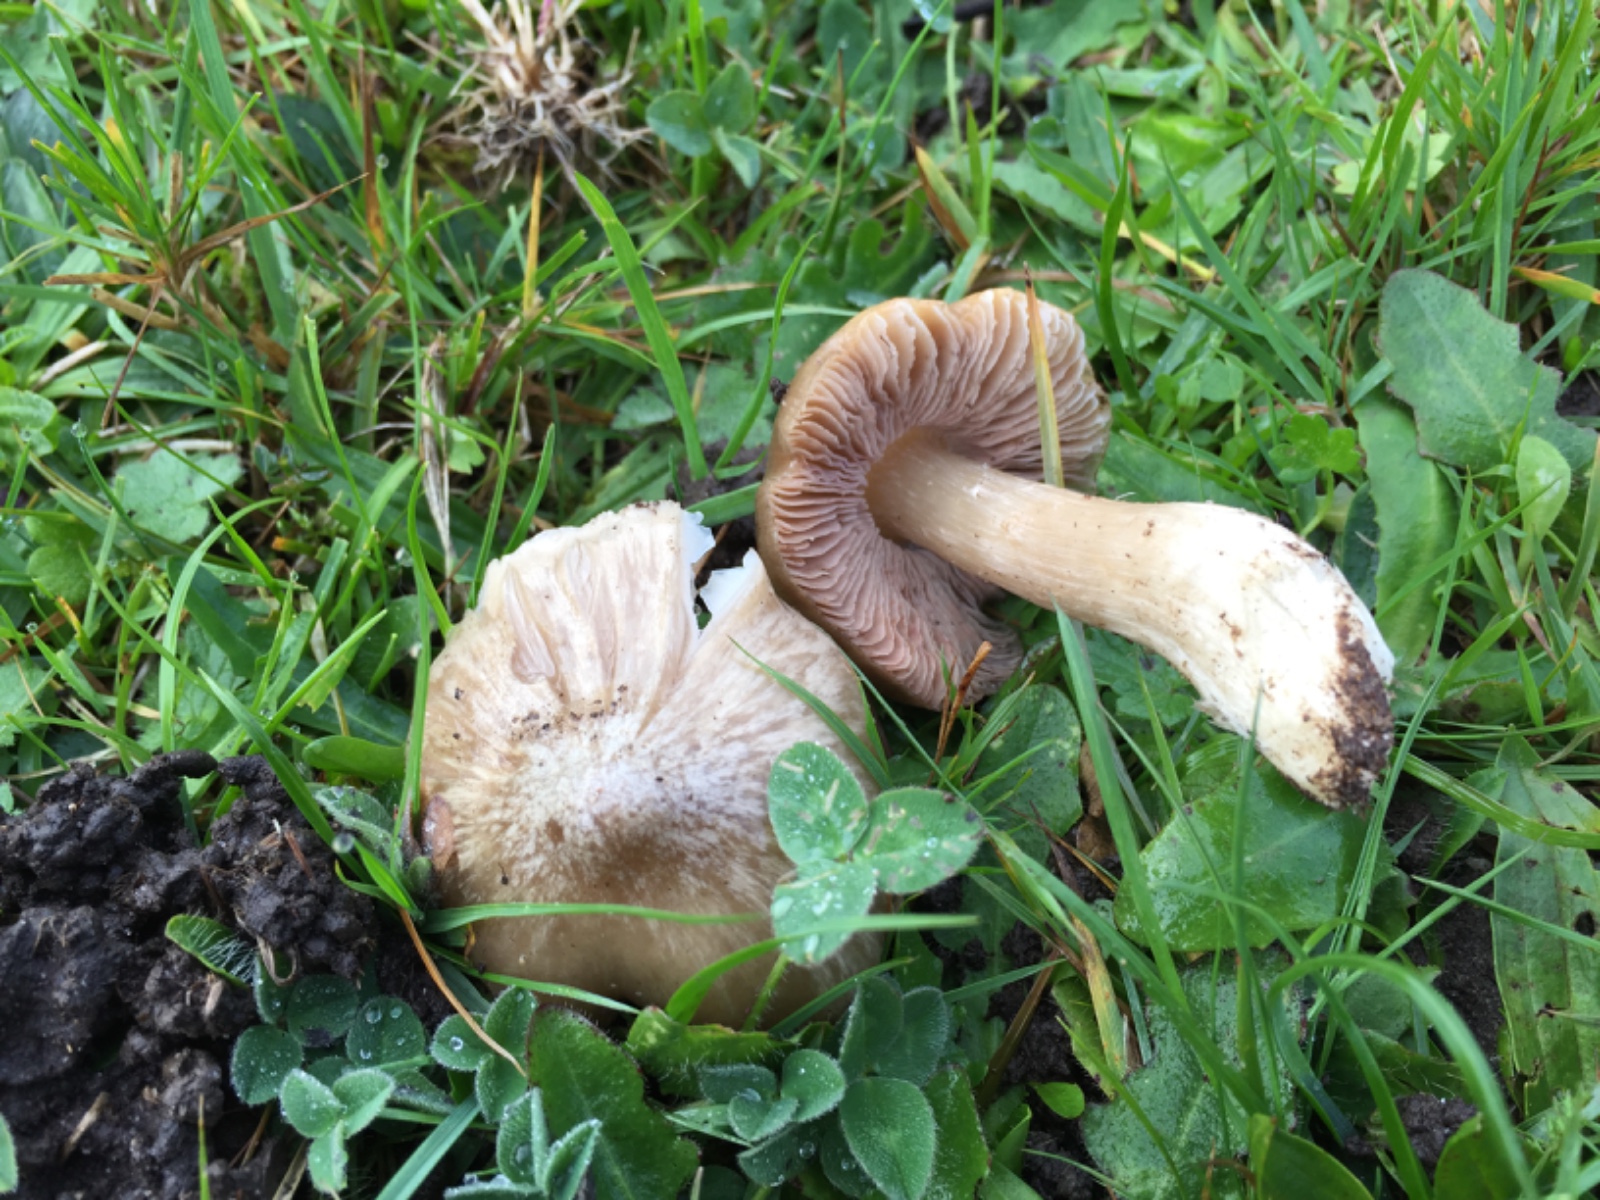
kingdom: Fungi
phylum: Basidiomycota
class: Agaricomycetes
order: Agaricales
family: Entolomataceae
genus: Entoloma
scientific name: Entoloma prunuloides
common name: mel-rødblad
